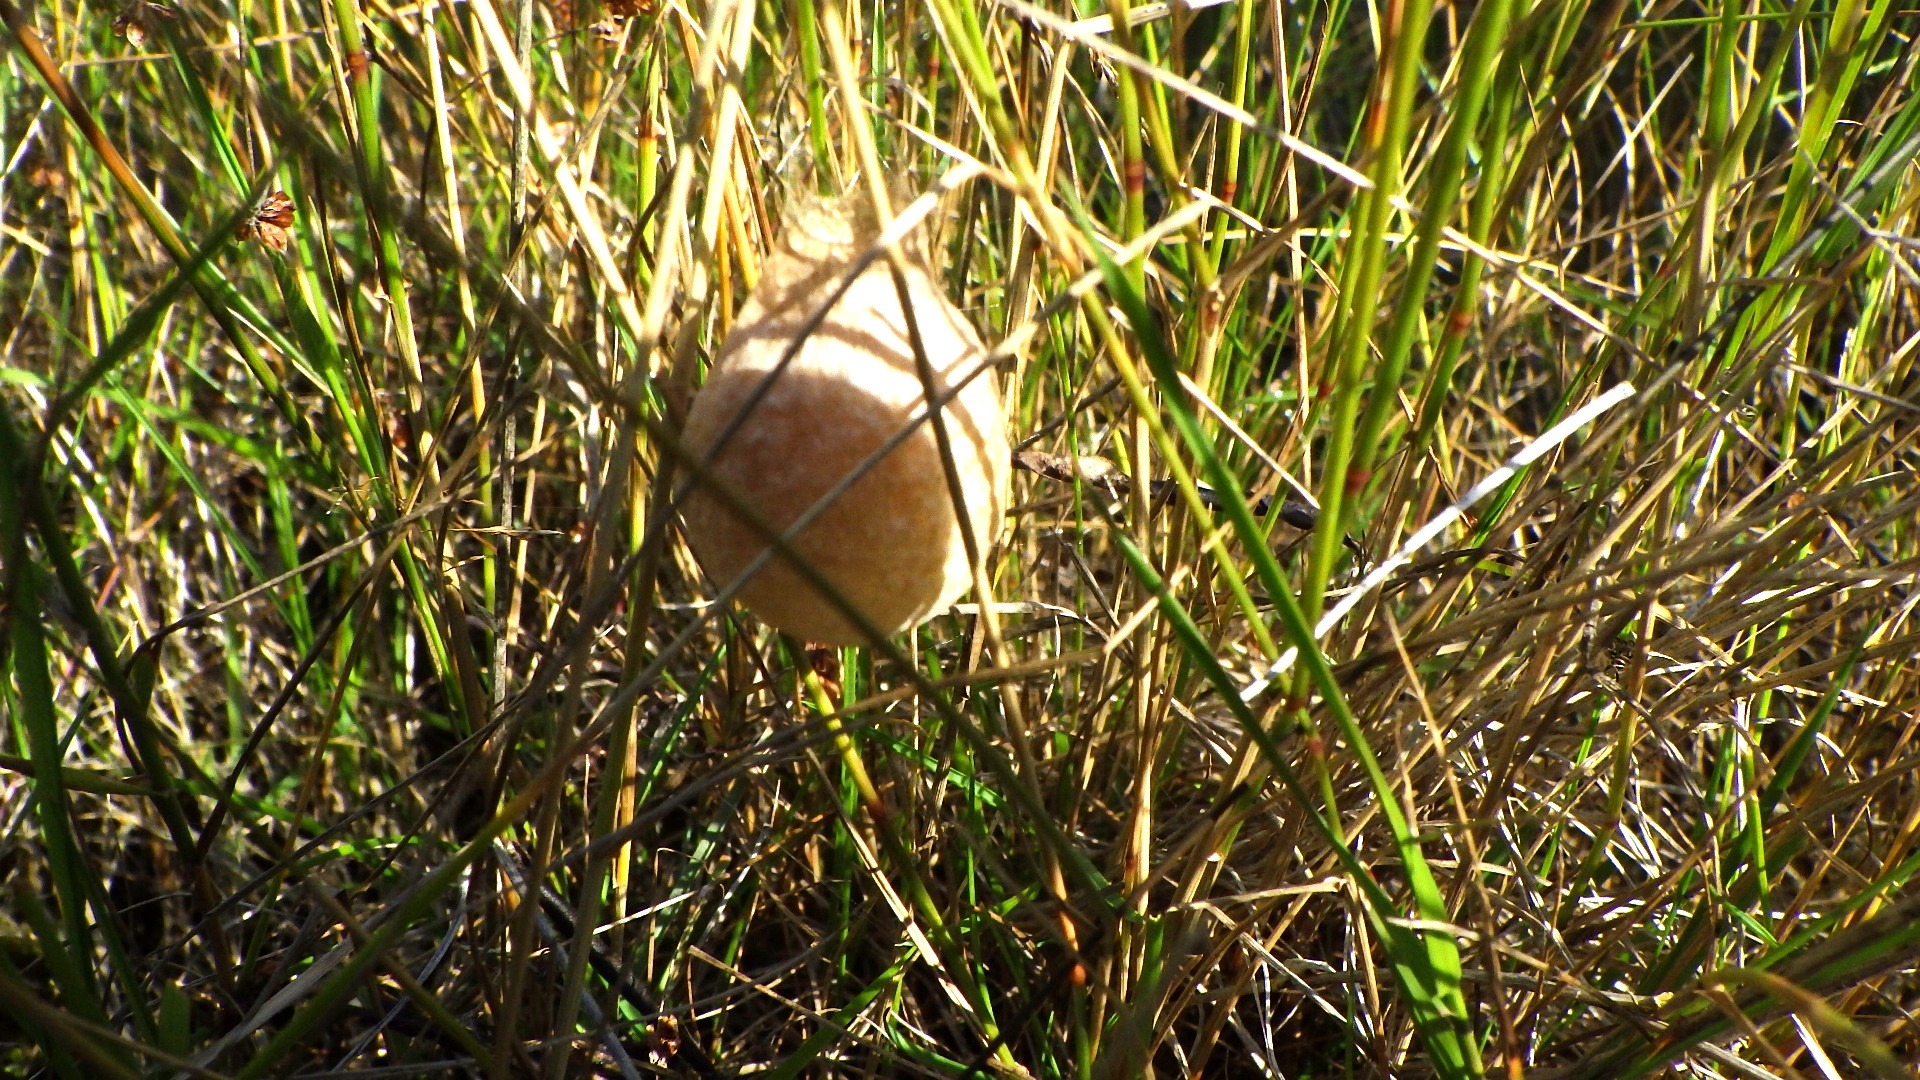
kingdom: Animalia
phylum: Arthropoda
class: Arachnida
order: Araneae
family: Araneidae
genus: Argiope
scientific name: Argiope bruennichi
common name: Hvepseedderkop
